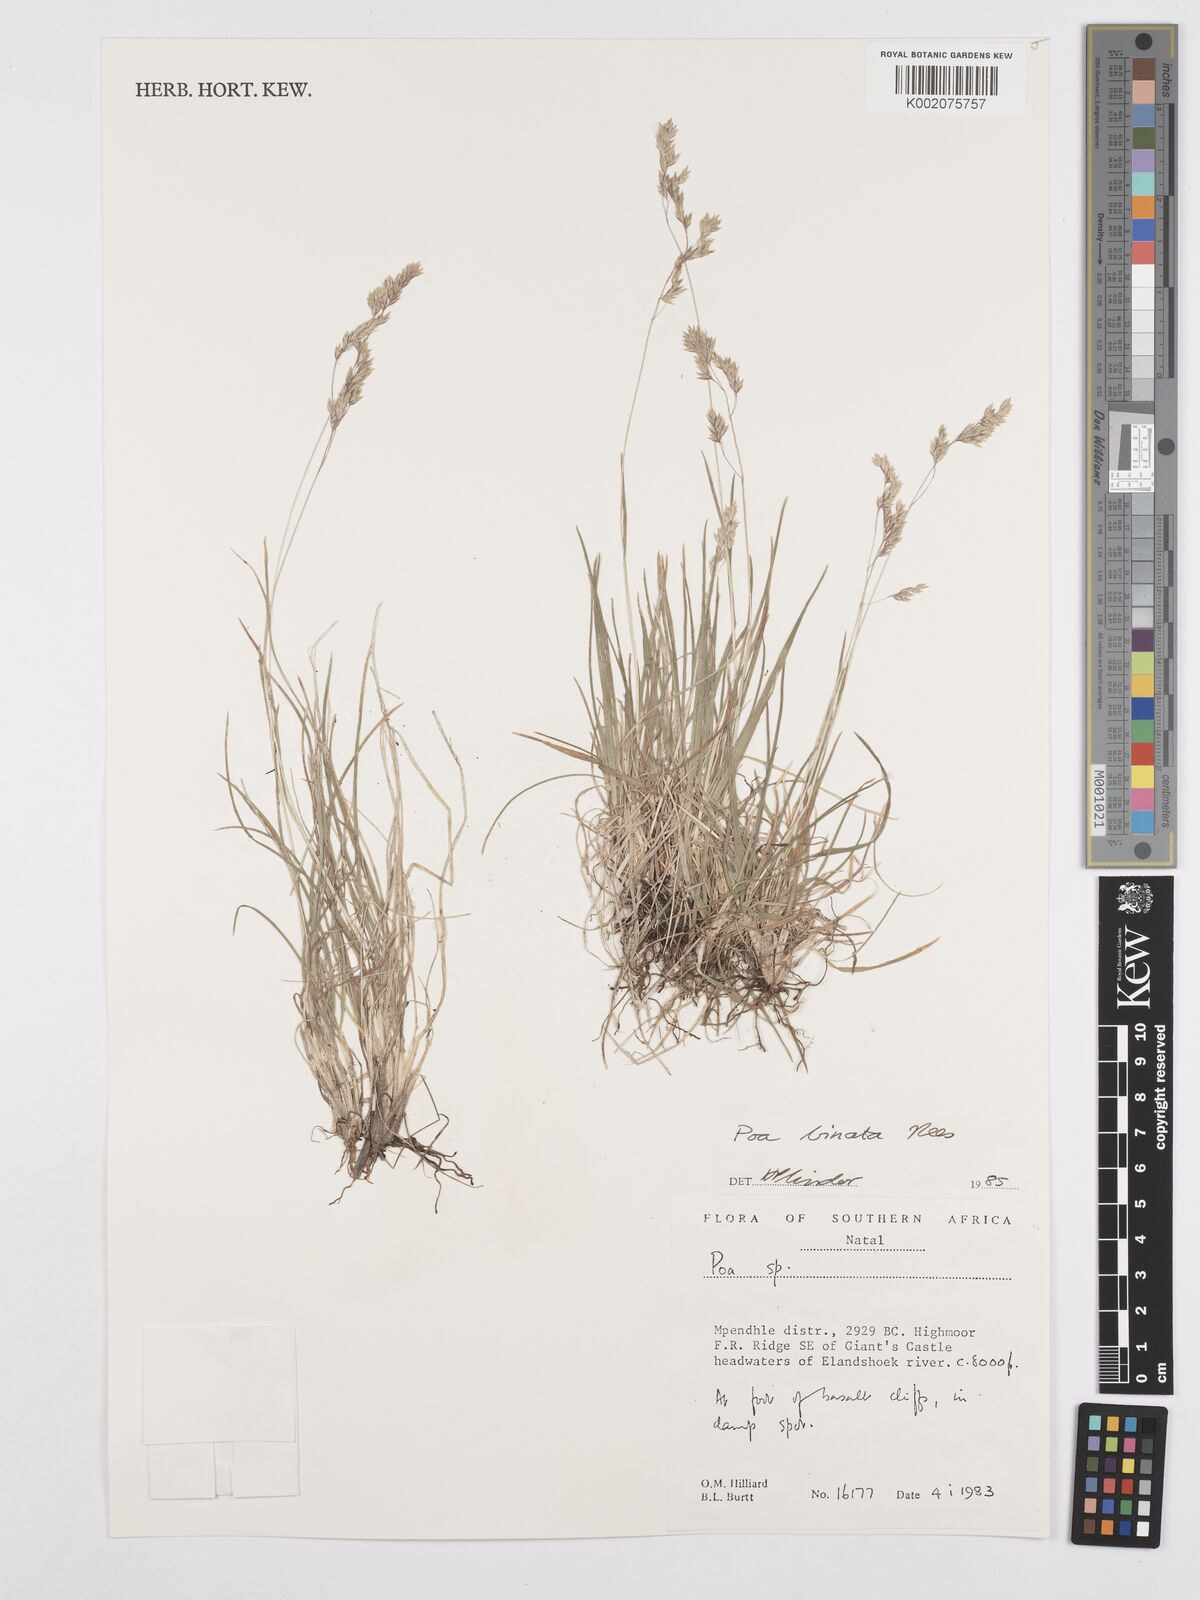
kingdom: Plantae
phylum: Tracheophyta
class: Liliopsida
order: Poales
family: Poaceae
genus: Poa
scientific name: Poa binata
